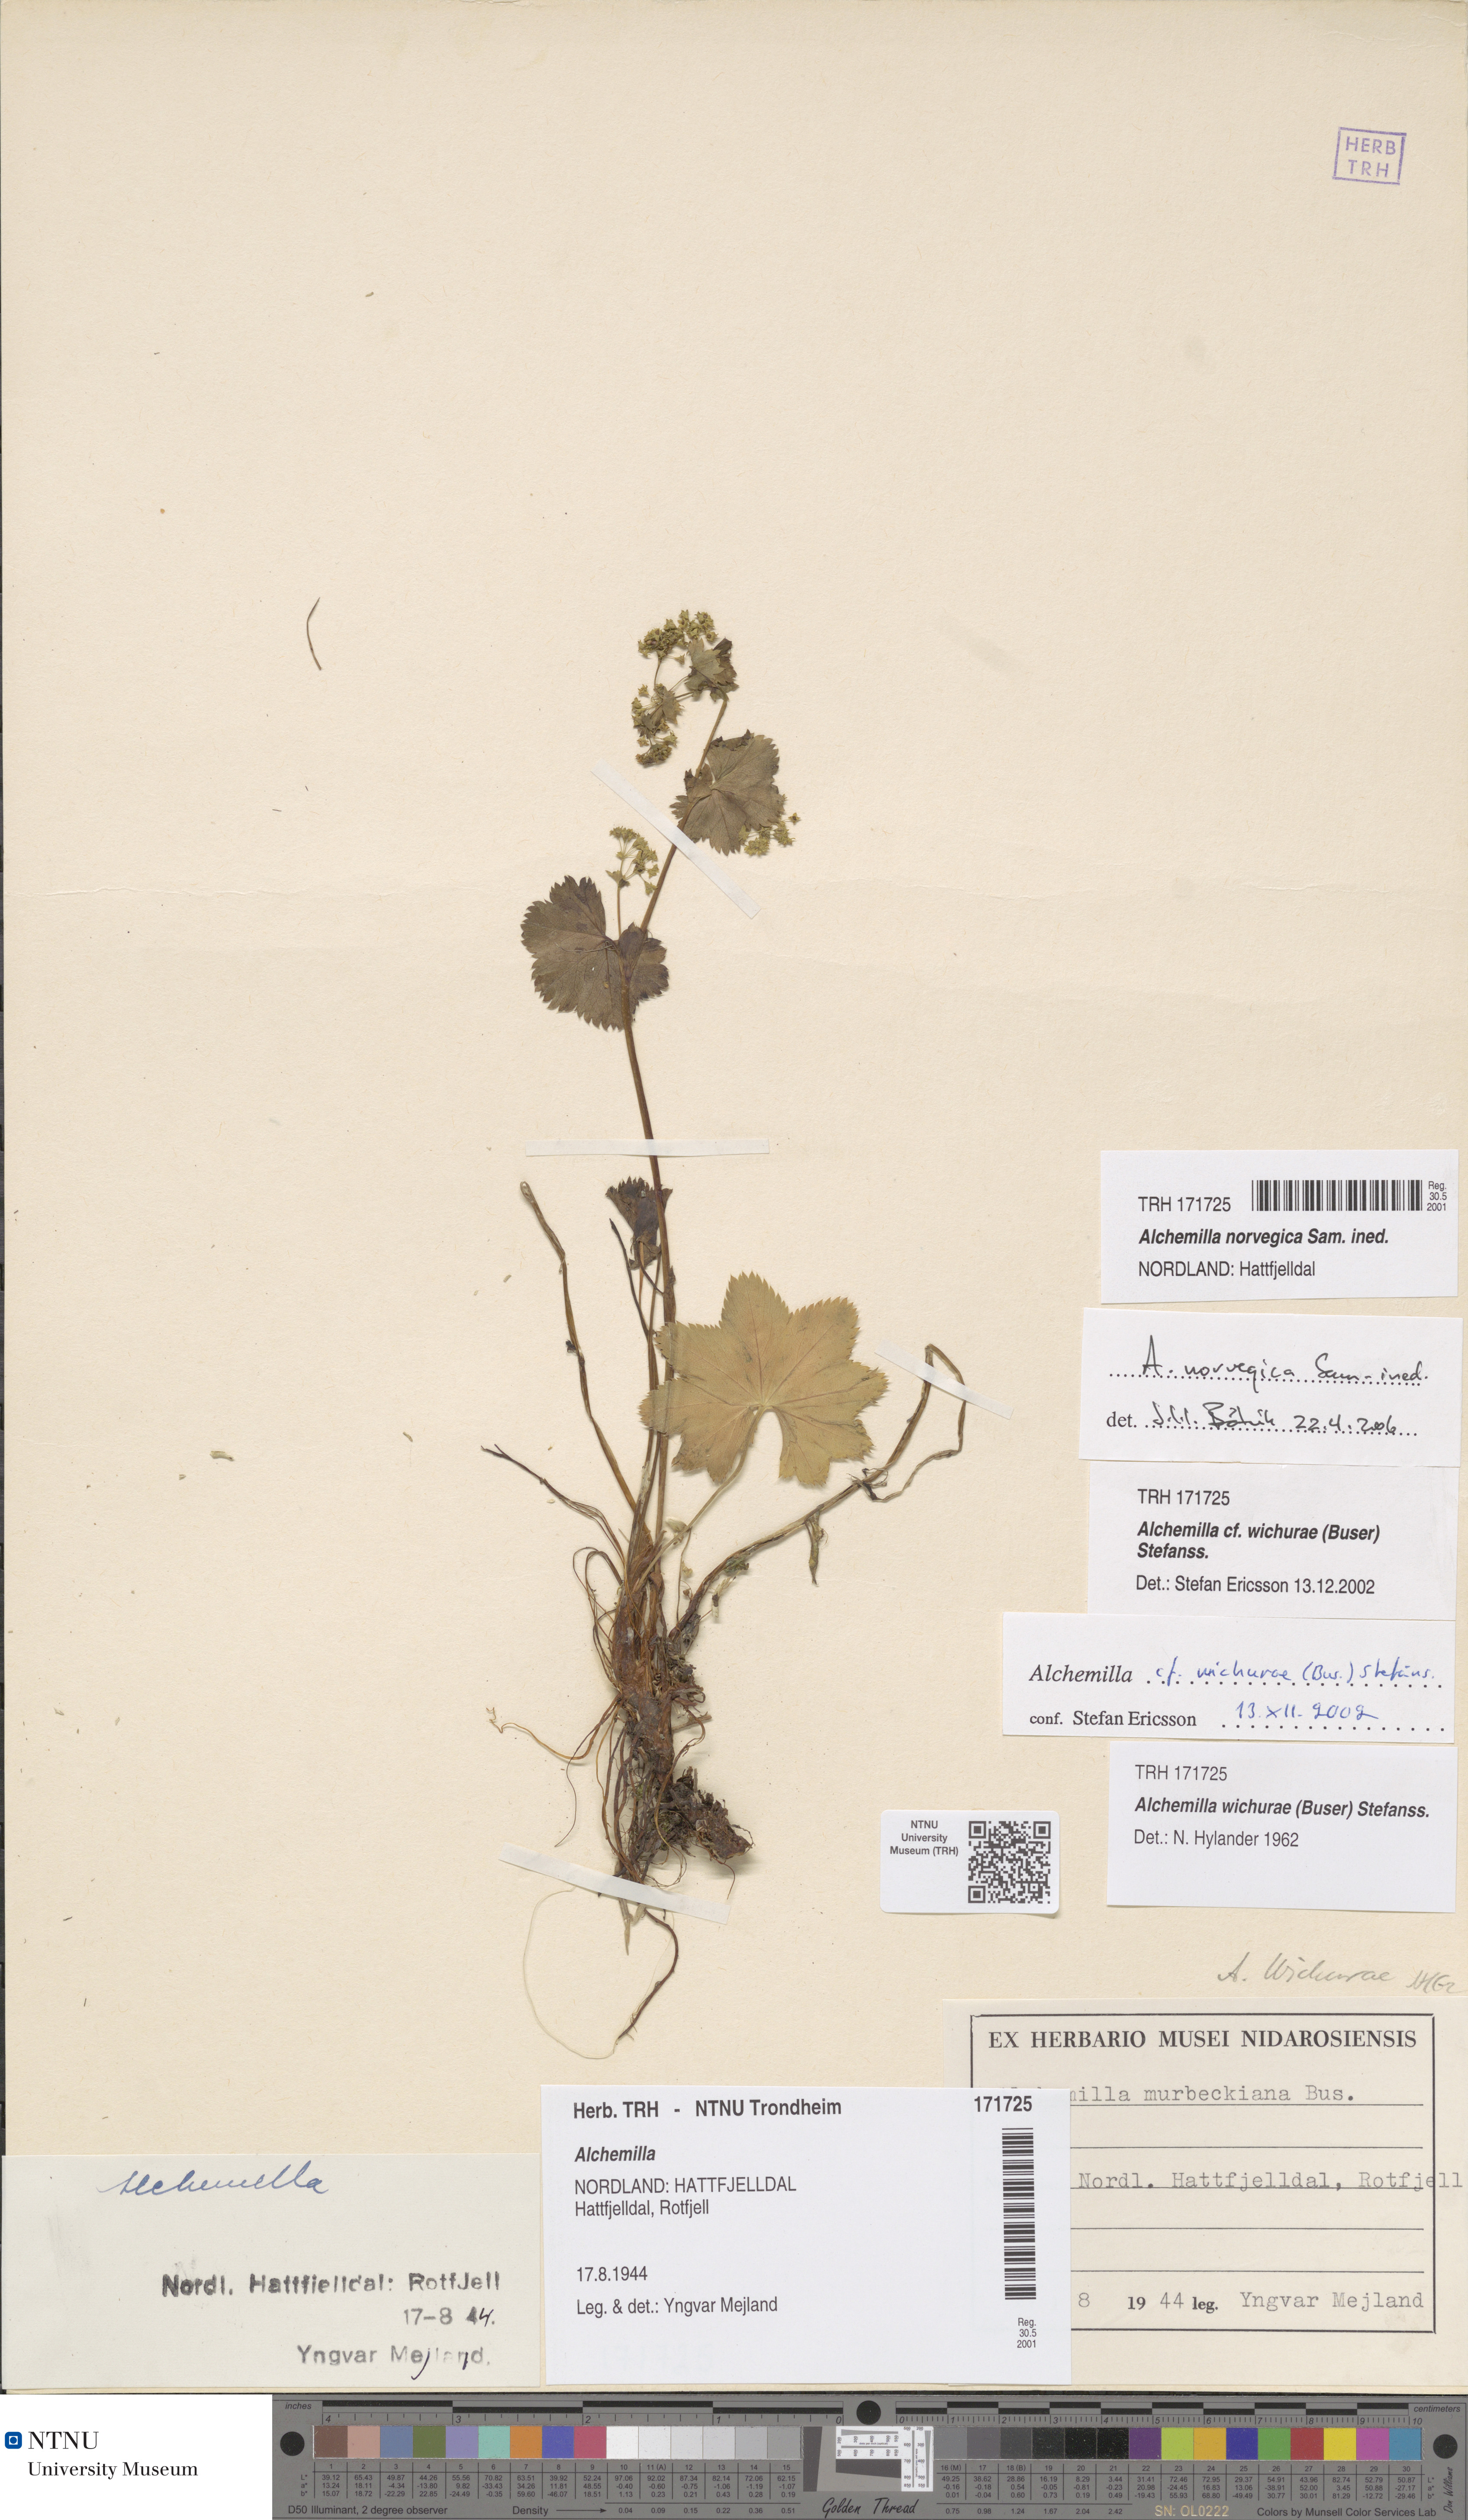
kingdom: Plantae
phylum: Tracheophyta
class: Magnoliopsida
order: Rosales
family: Rosaceae
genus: Alchemilla
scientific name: Alchemilla norvegica
